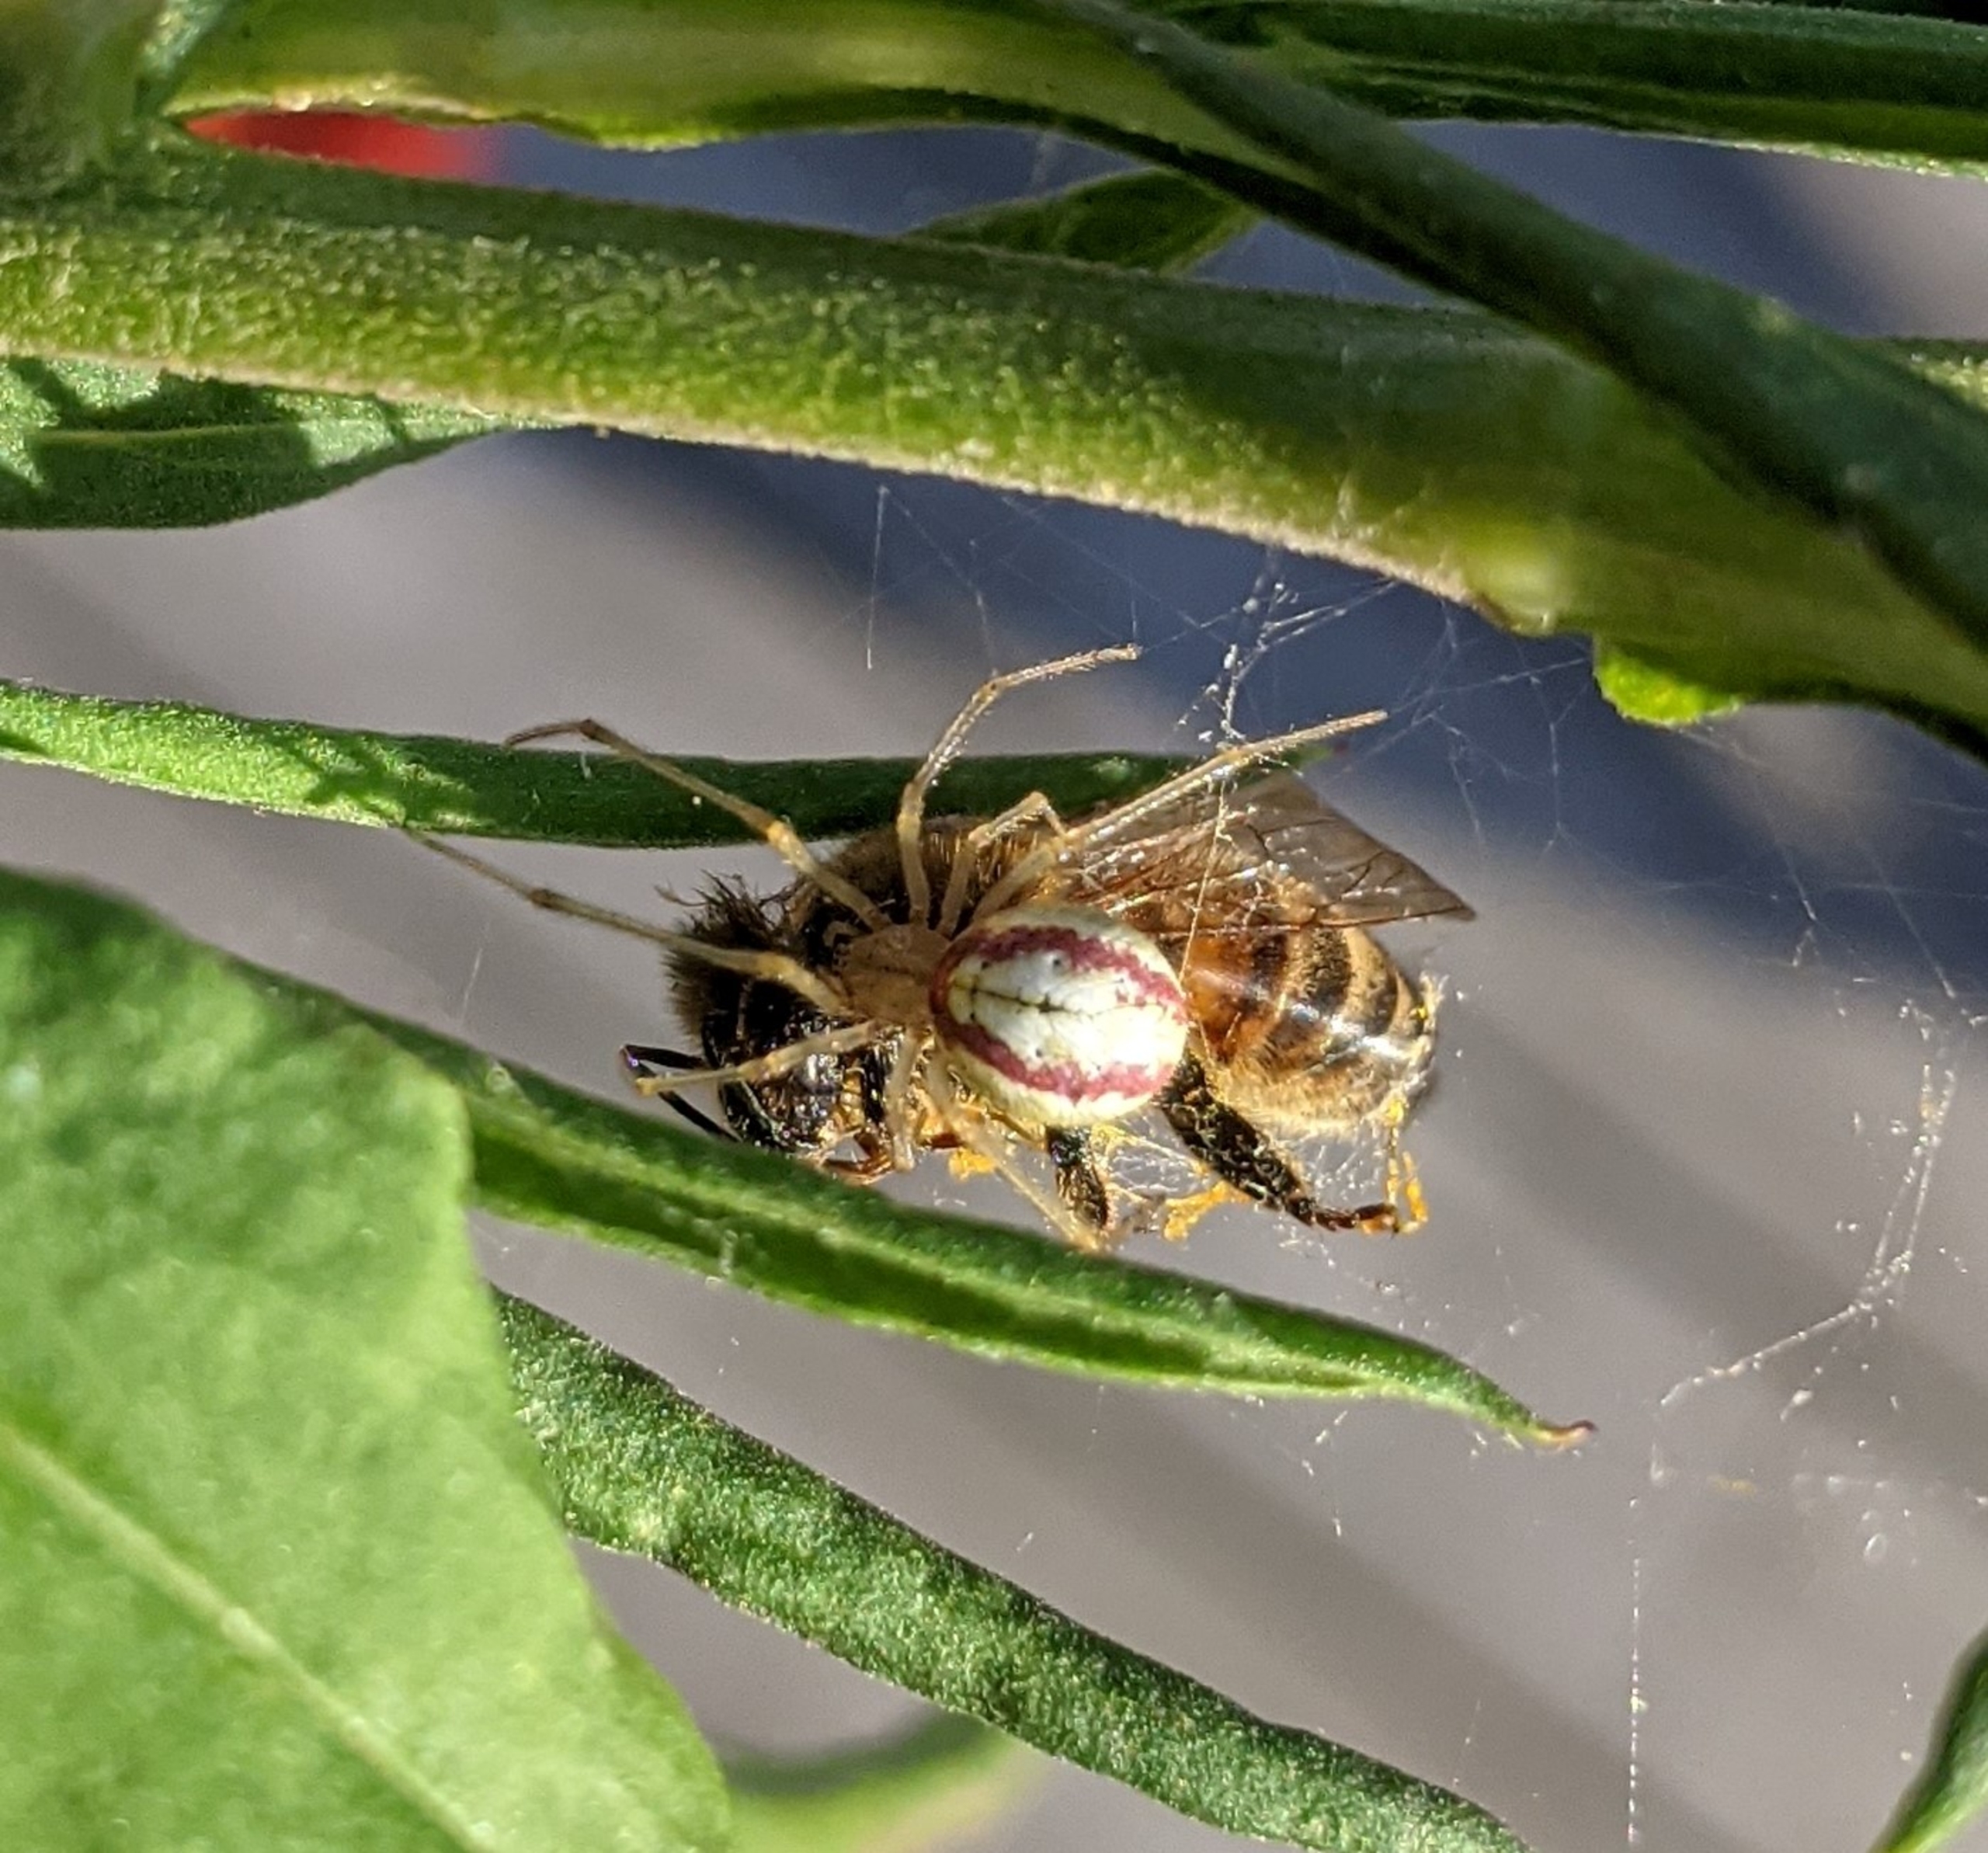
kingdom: Animalia
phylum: Arthropoda
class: Arachnida
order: Araneae
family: Theridiidae
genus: Enoplognatha
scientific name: Enoplognatha ovata
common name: Perleedderkop
